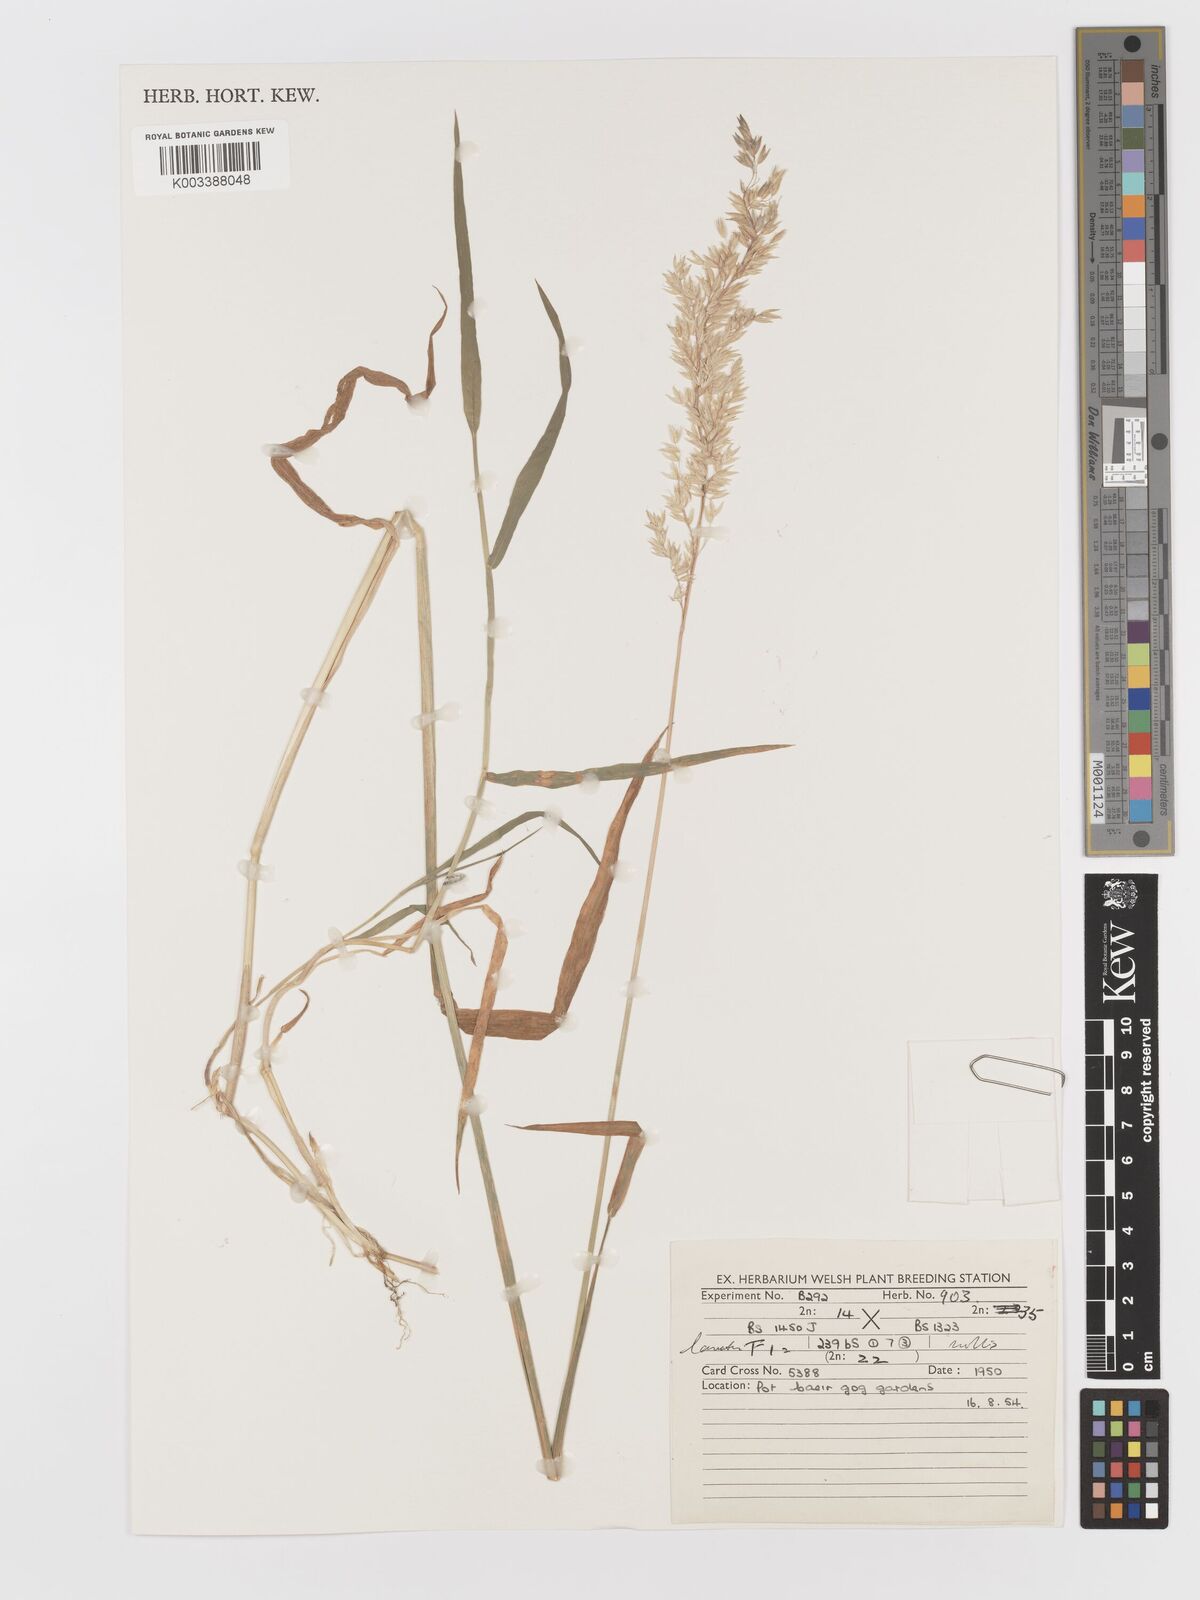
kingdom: Plantae
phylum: Tracheophyta
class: Liliopsida
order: Poales
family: Poaceae
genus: Holcus
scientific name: Holcus lanatus
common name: Yorkshire-fog
